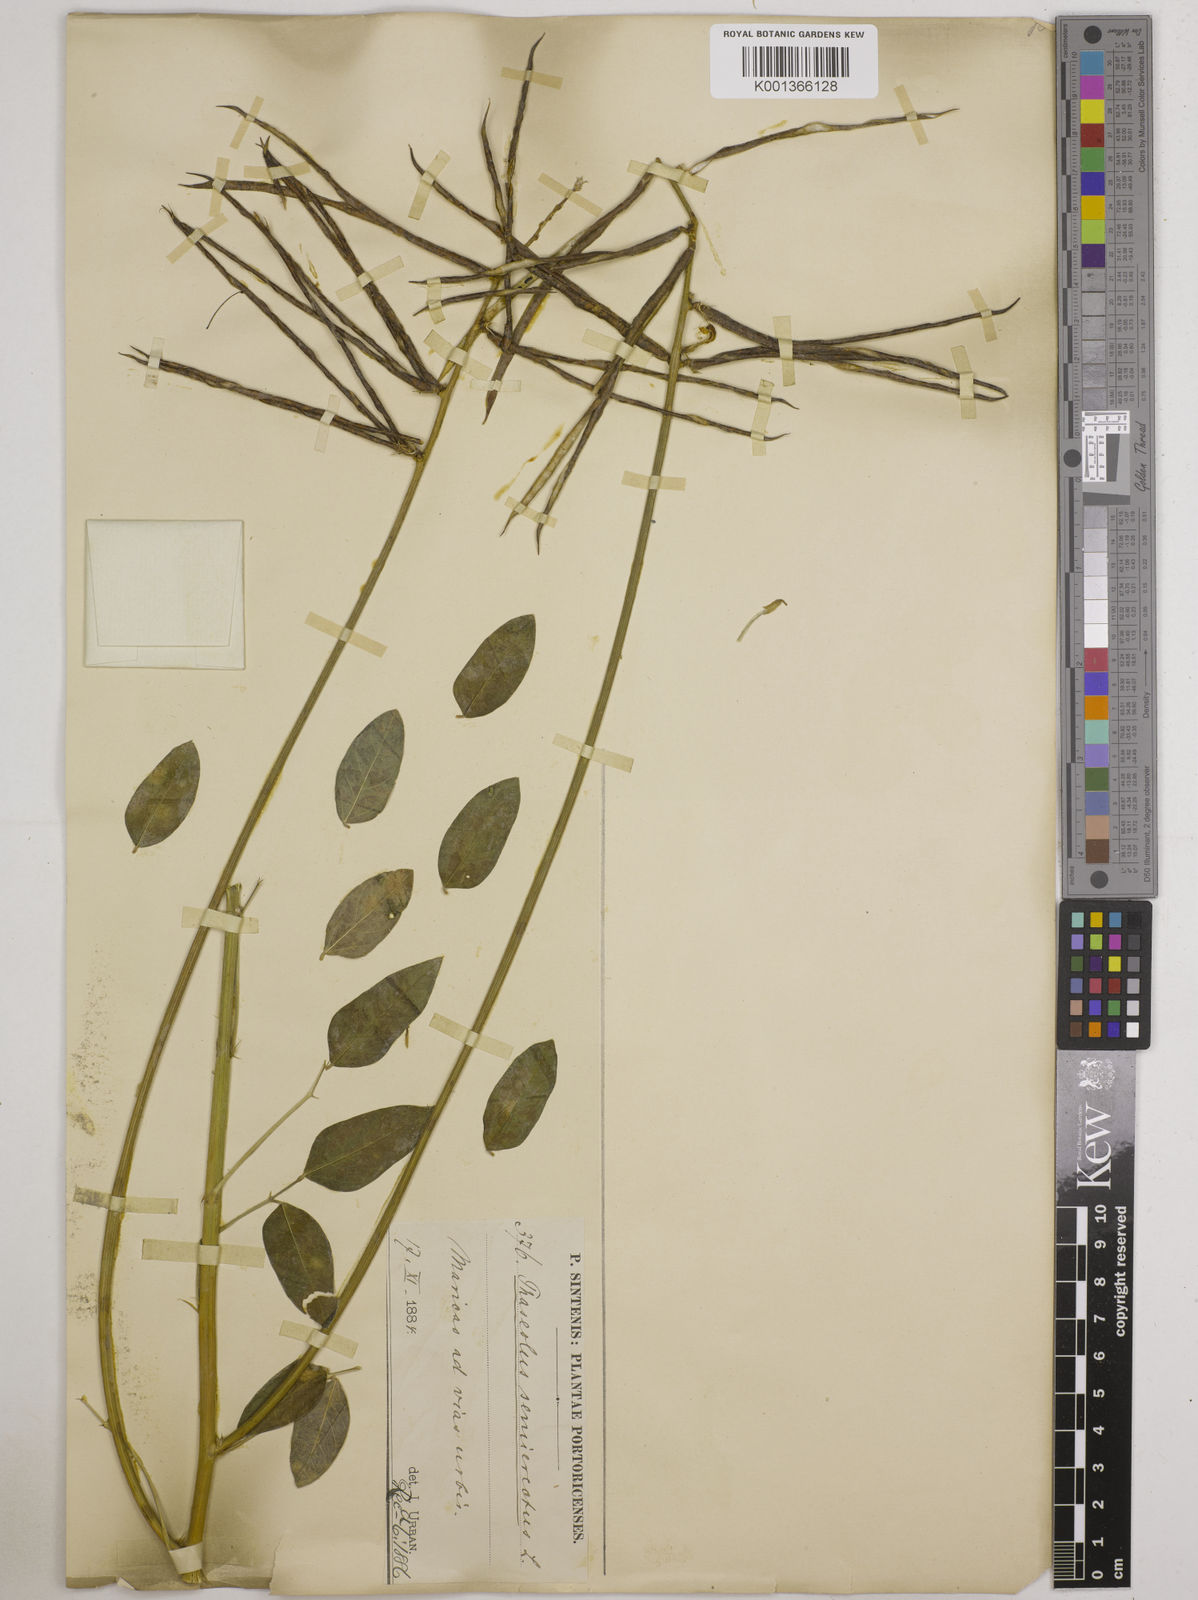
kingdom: Plantae
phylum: Tracheophyta
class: Magnoliopsida
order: Fabales
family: Fabaceae
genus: Macroptilium
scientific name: Macroptilium lathyroides
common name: Wild bushbean
